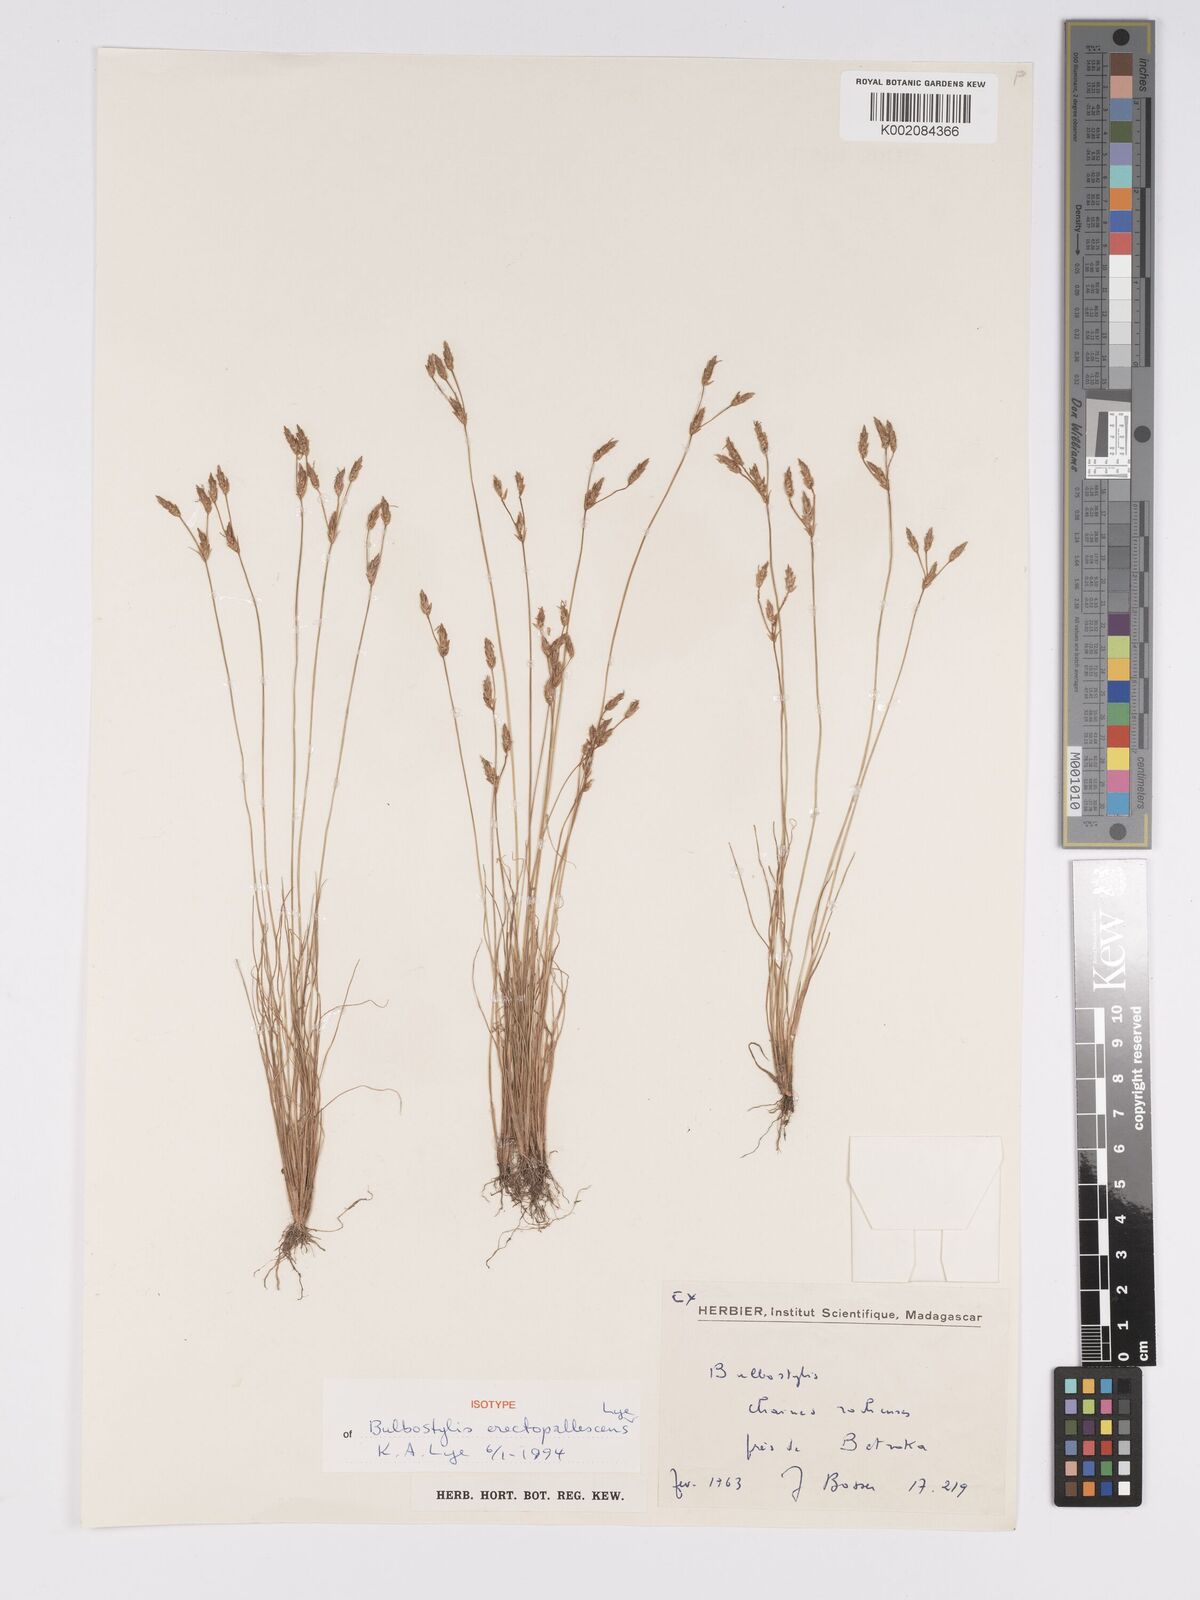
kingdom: Plantae
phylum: Tracheophyta
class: Liliopsida
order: Poales
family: Cyperaceae
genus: Bulbostylis
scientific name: Bulbostylis
